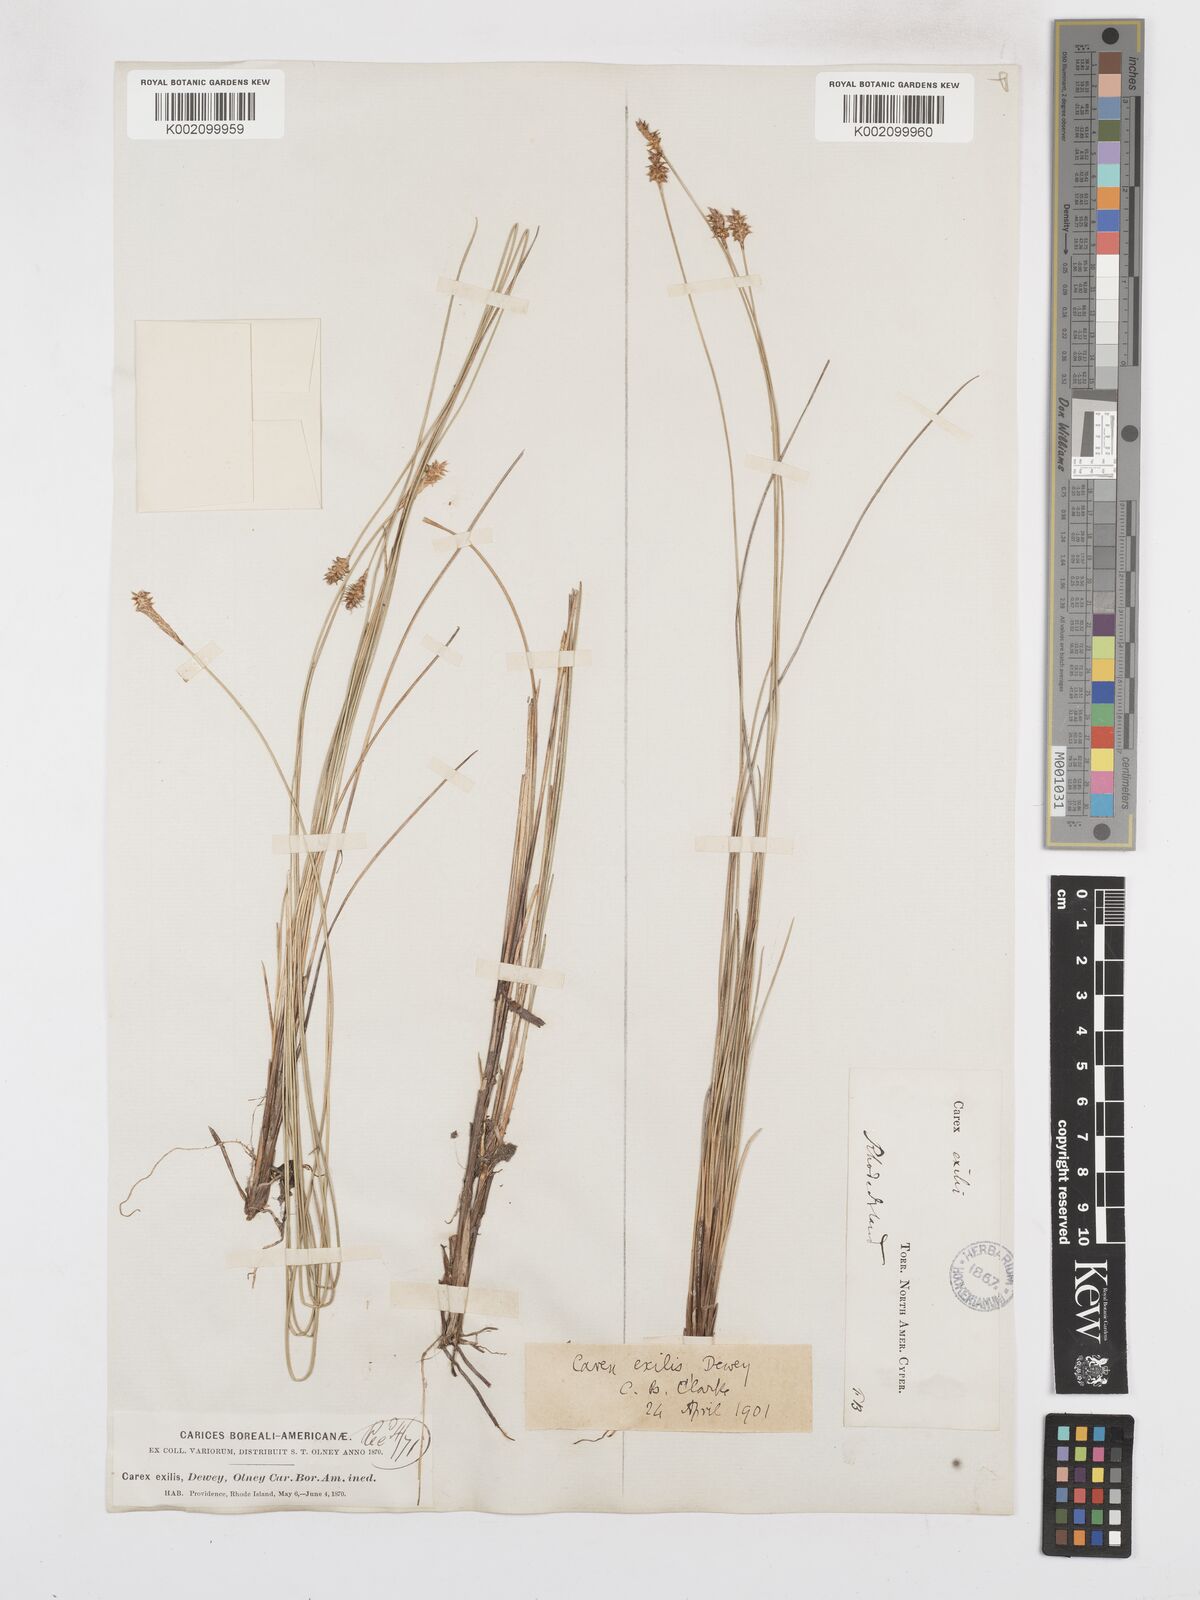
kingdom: Plantae
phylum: Tracheophyta
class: Liliopsida
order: Poales
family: Cyperaceae
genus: Carex
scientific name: Carex exilis
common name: Coastal sedge
